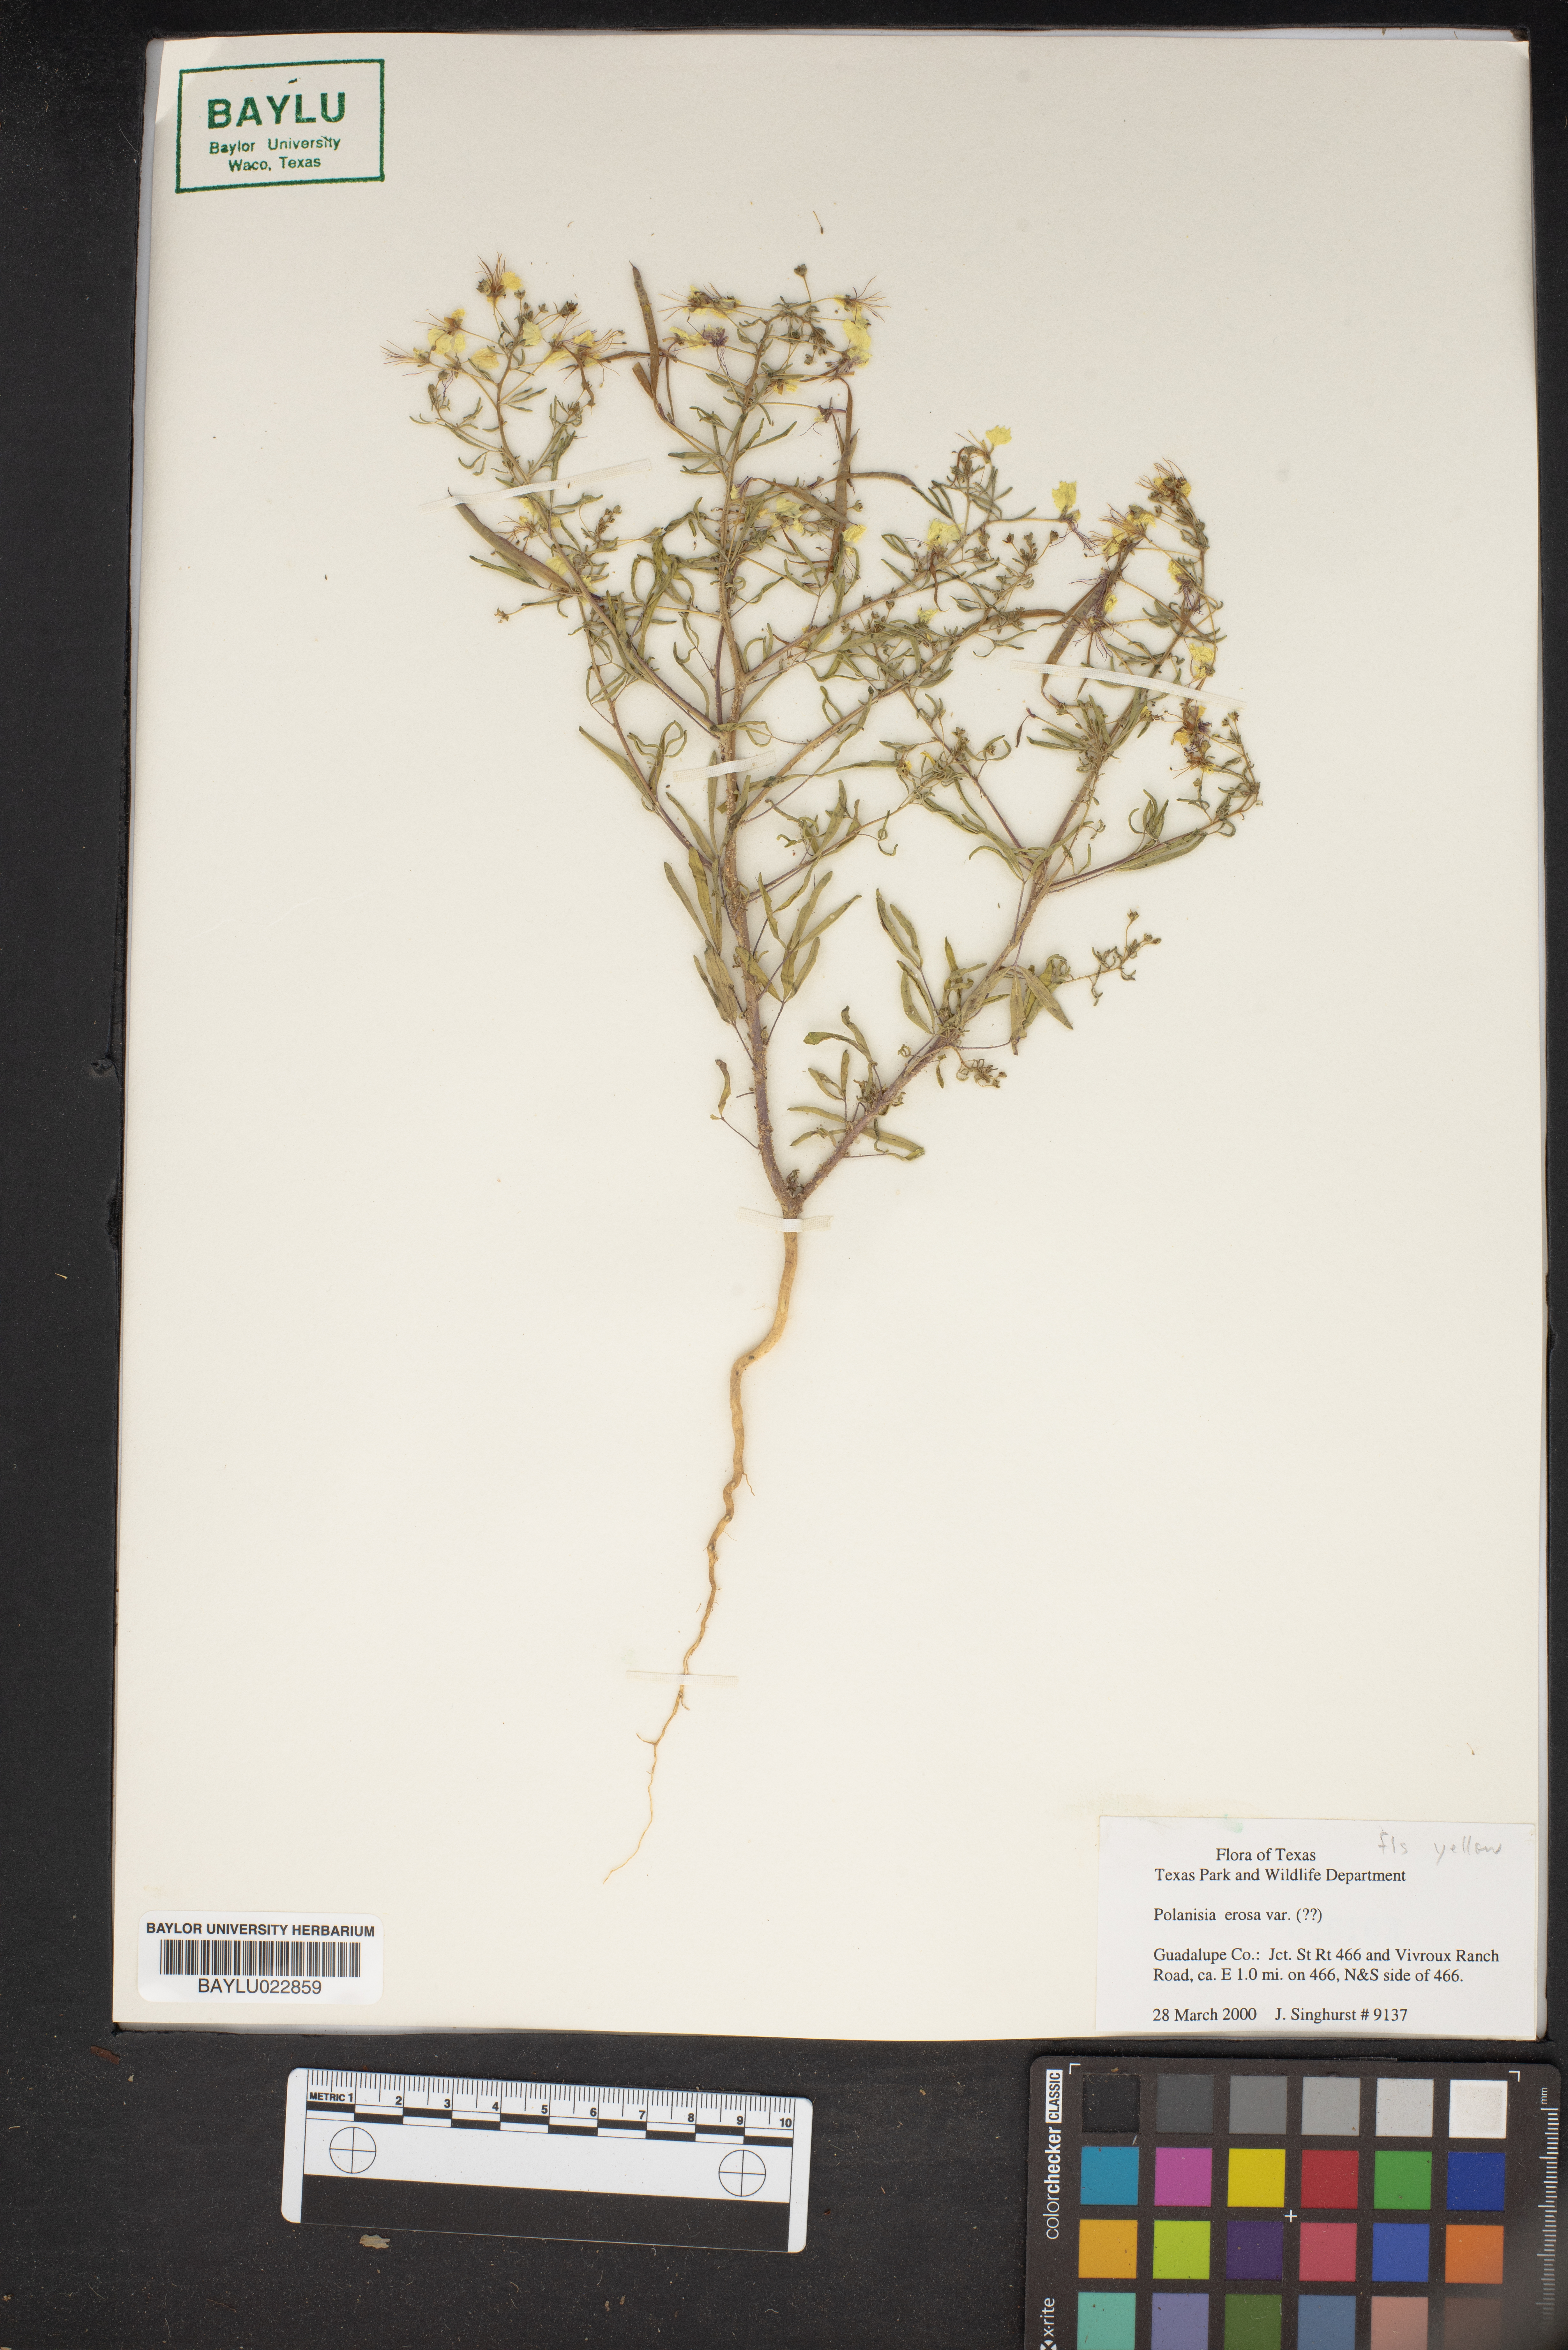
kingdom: Plantae
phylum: Tracheophyta
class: Magnoliopsida
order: Brassicales
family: Cleomaceae
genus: Polanisia
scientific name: Polanisia erosa
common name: Large clammyweed
